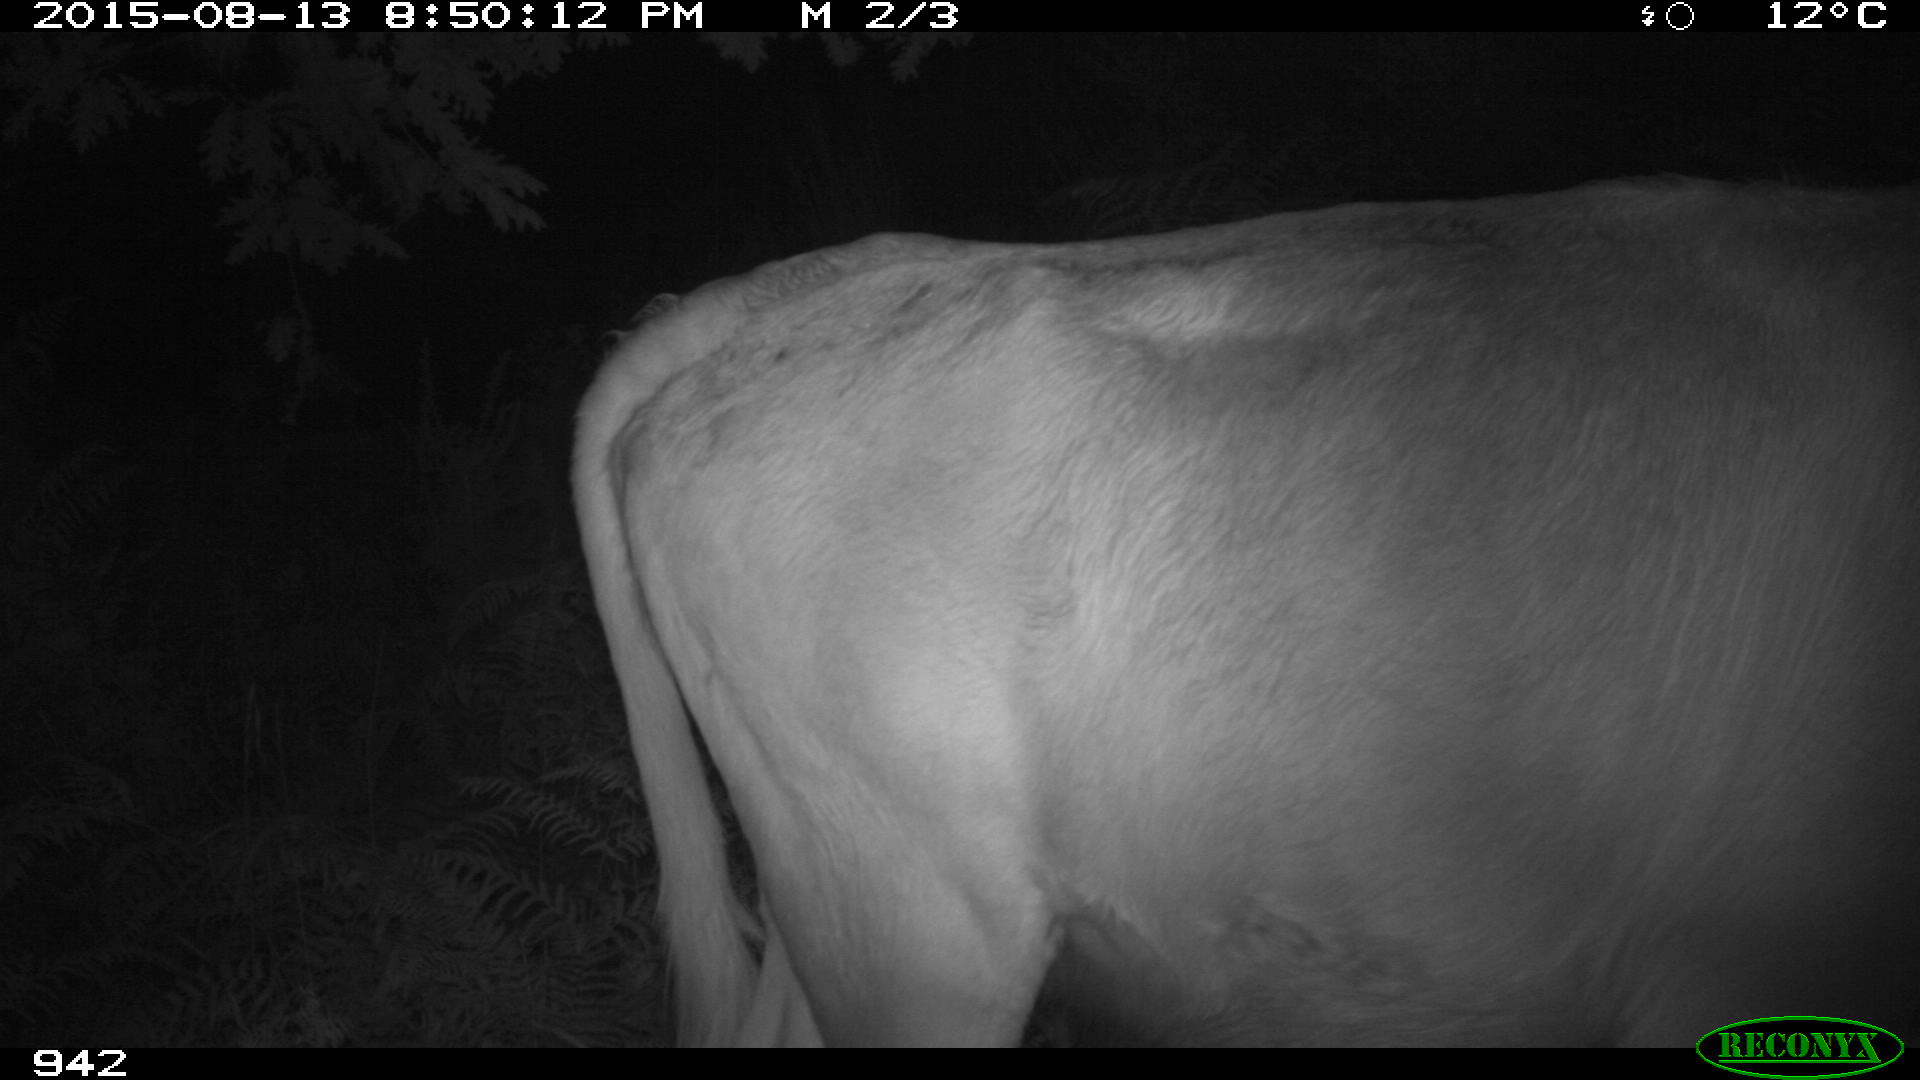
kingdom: Animalia
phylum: Chordata
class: Mammalia
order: Artiodactyla
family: Bovidae
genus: Bos
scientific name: Bos taurus
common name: Domesticated cattle
